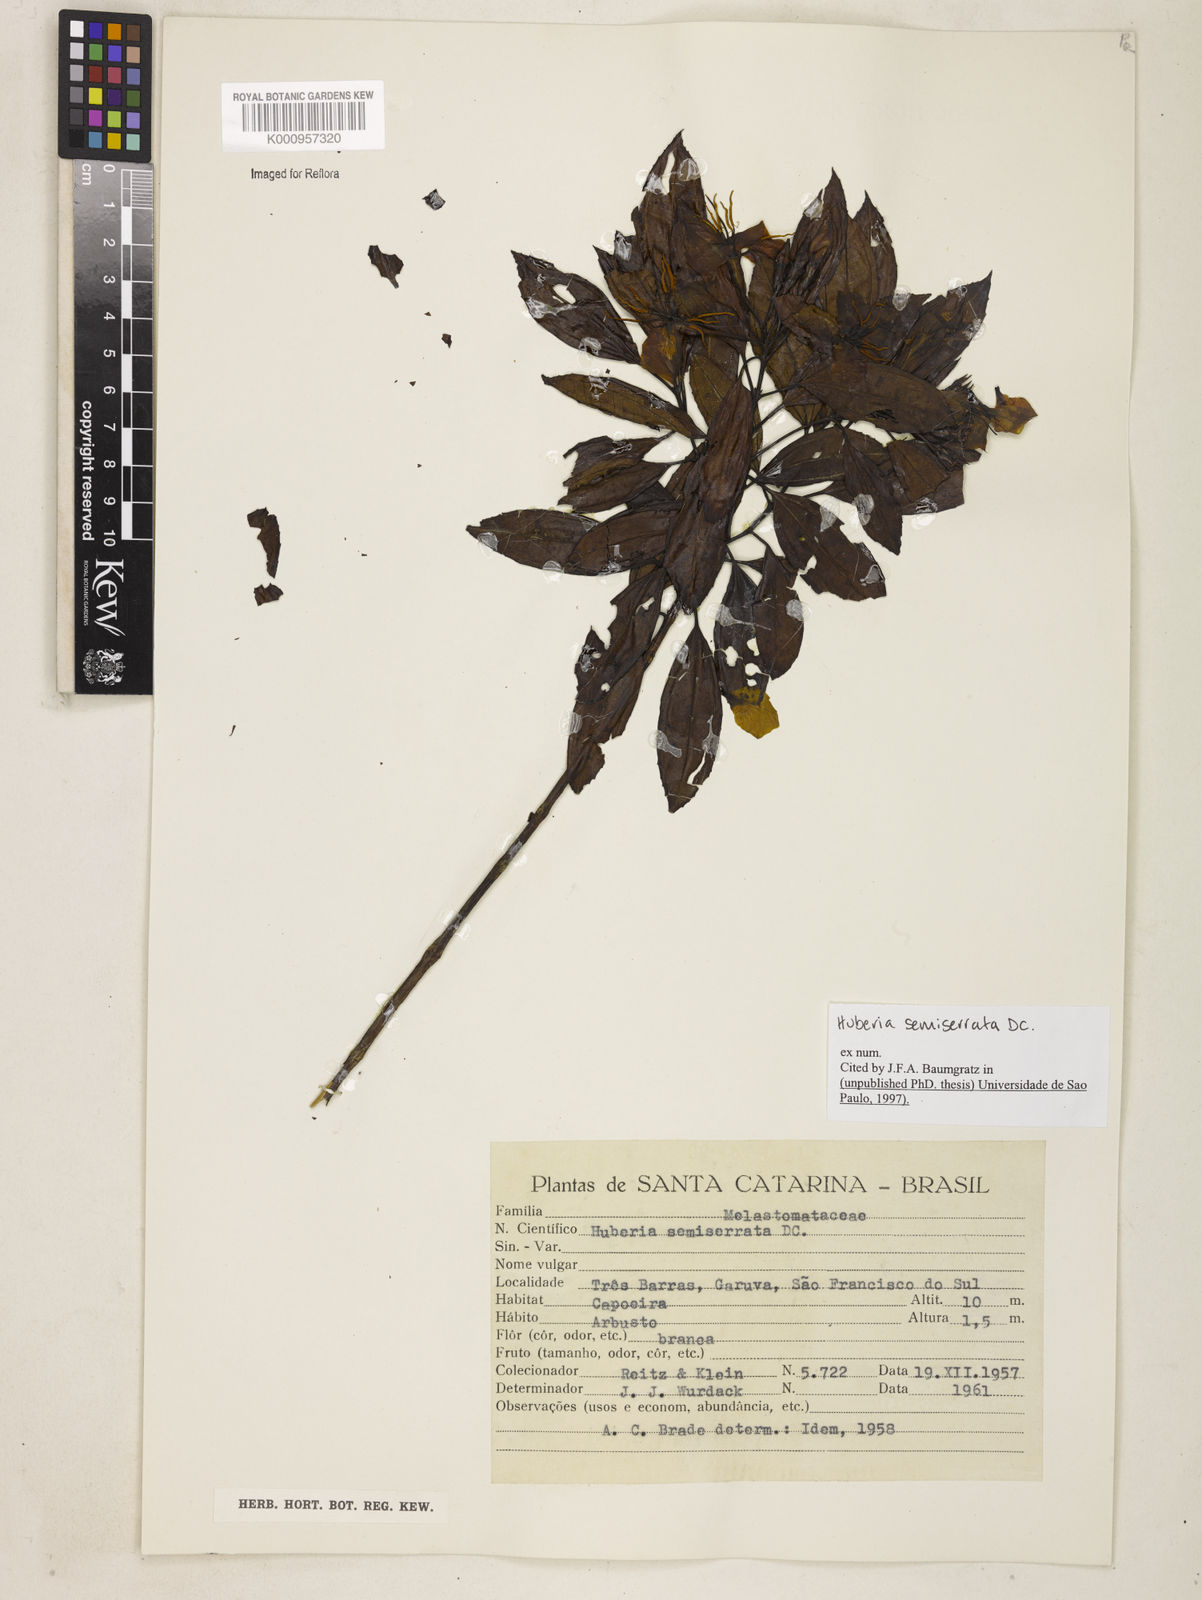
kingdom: Plantae
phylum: Tracheophyta
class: Magnoliopsida
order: Myrtales
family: Melastomataceae
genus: Huberia
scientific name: Huberia semiserrata
